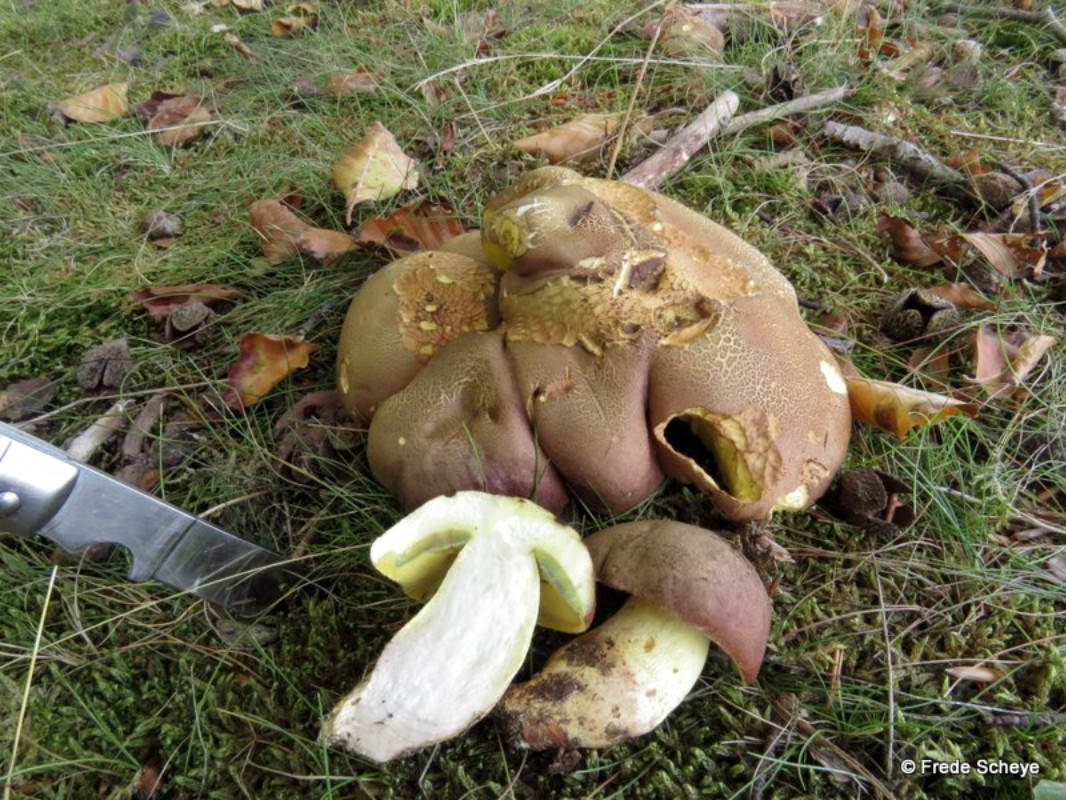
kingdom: Fungi
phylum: Basidiomycota
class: Agaricomycetes
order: Boletales
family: Boletaceae
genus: Butyriboletus
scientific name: Butyriboletus appendiculatus
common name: tenstokket rørhat
